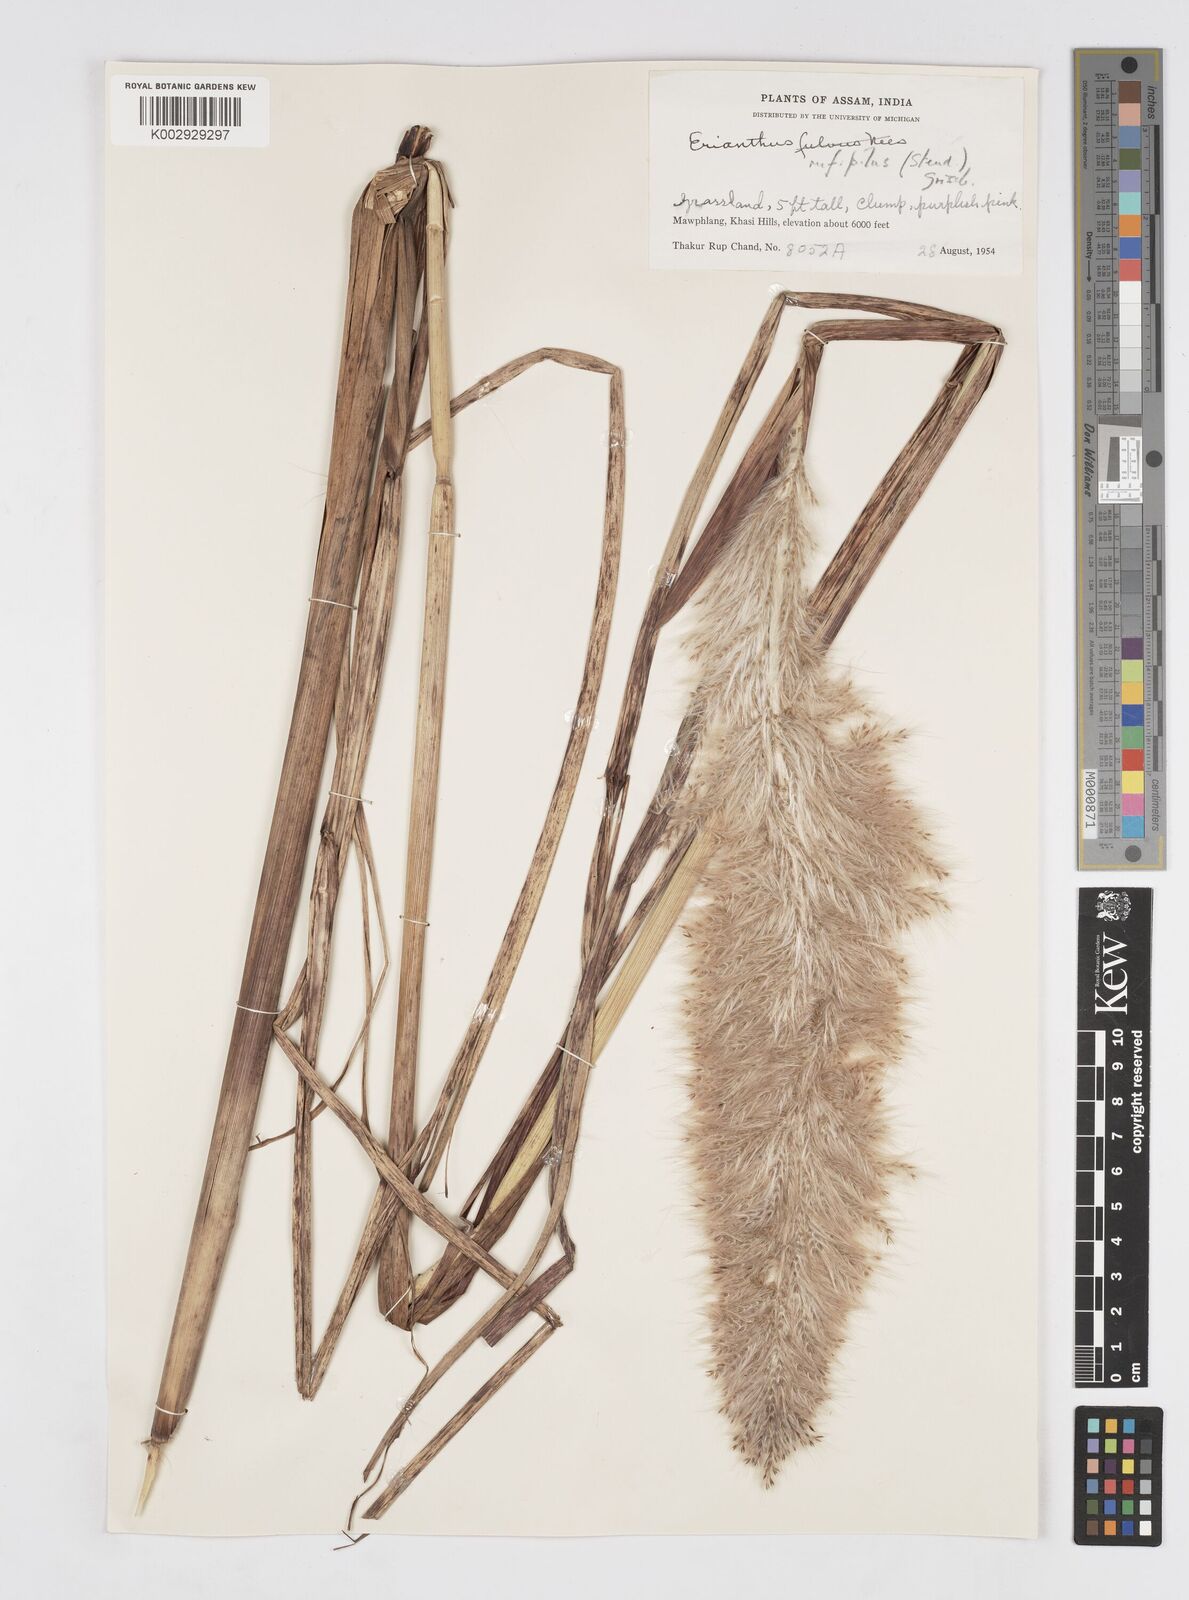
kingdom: Plantae
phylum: Tracheophyta
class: Liliopsida
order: Poales
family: Poaceae
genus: Tripidium
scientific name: Tripidium rufipilum
